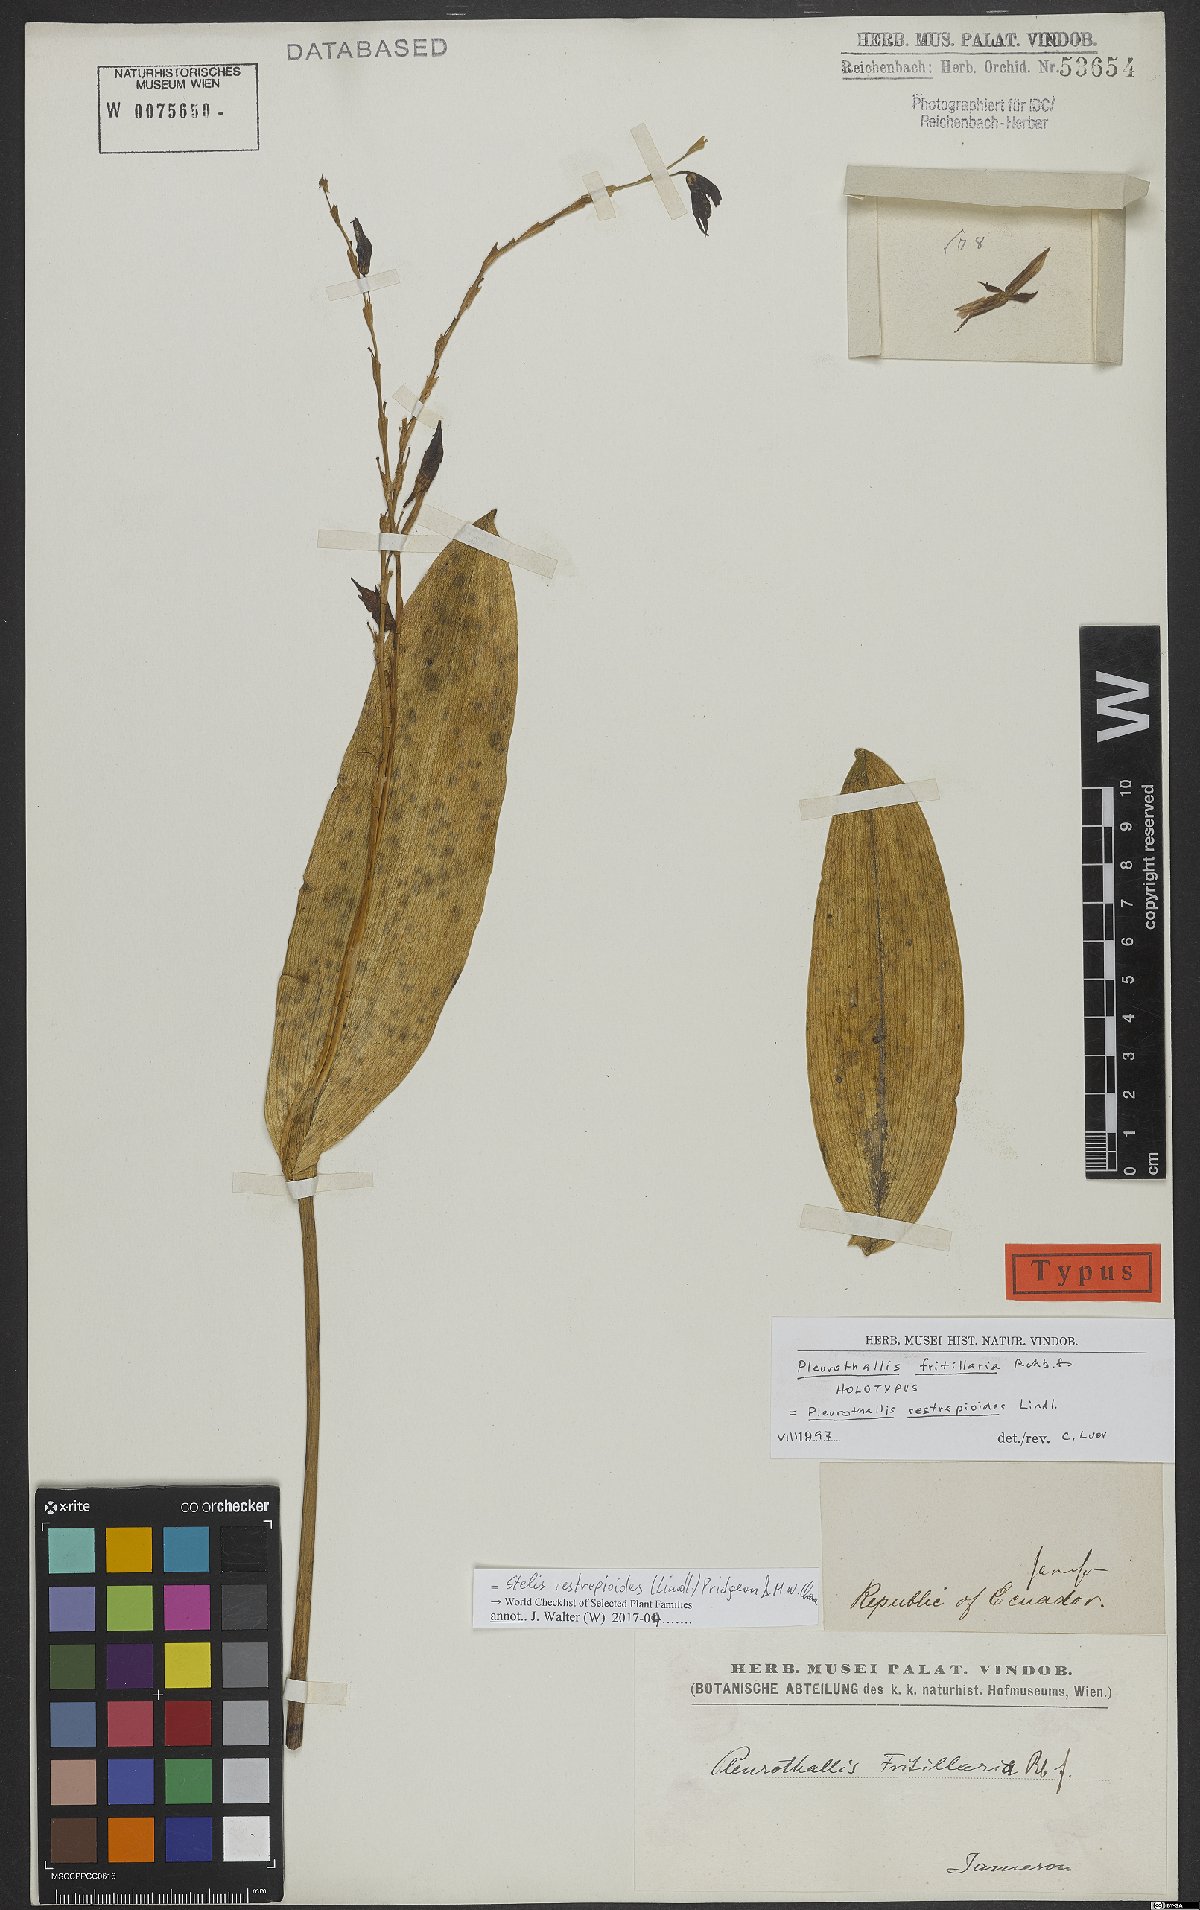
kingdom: Plantae
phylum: Tracheophyta
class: Liliopsida
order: Asparagales
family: Orchidaceae
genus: Pleurothallis
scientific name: Pleurothallis restrepioides
